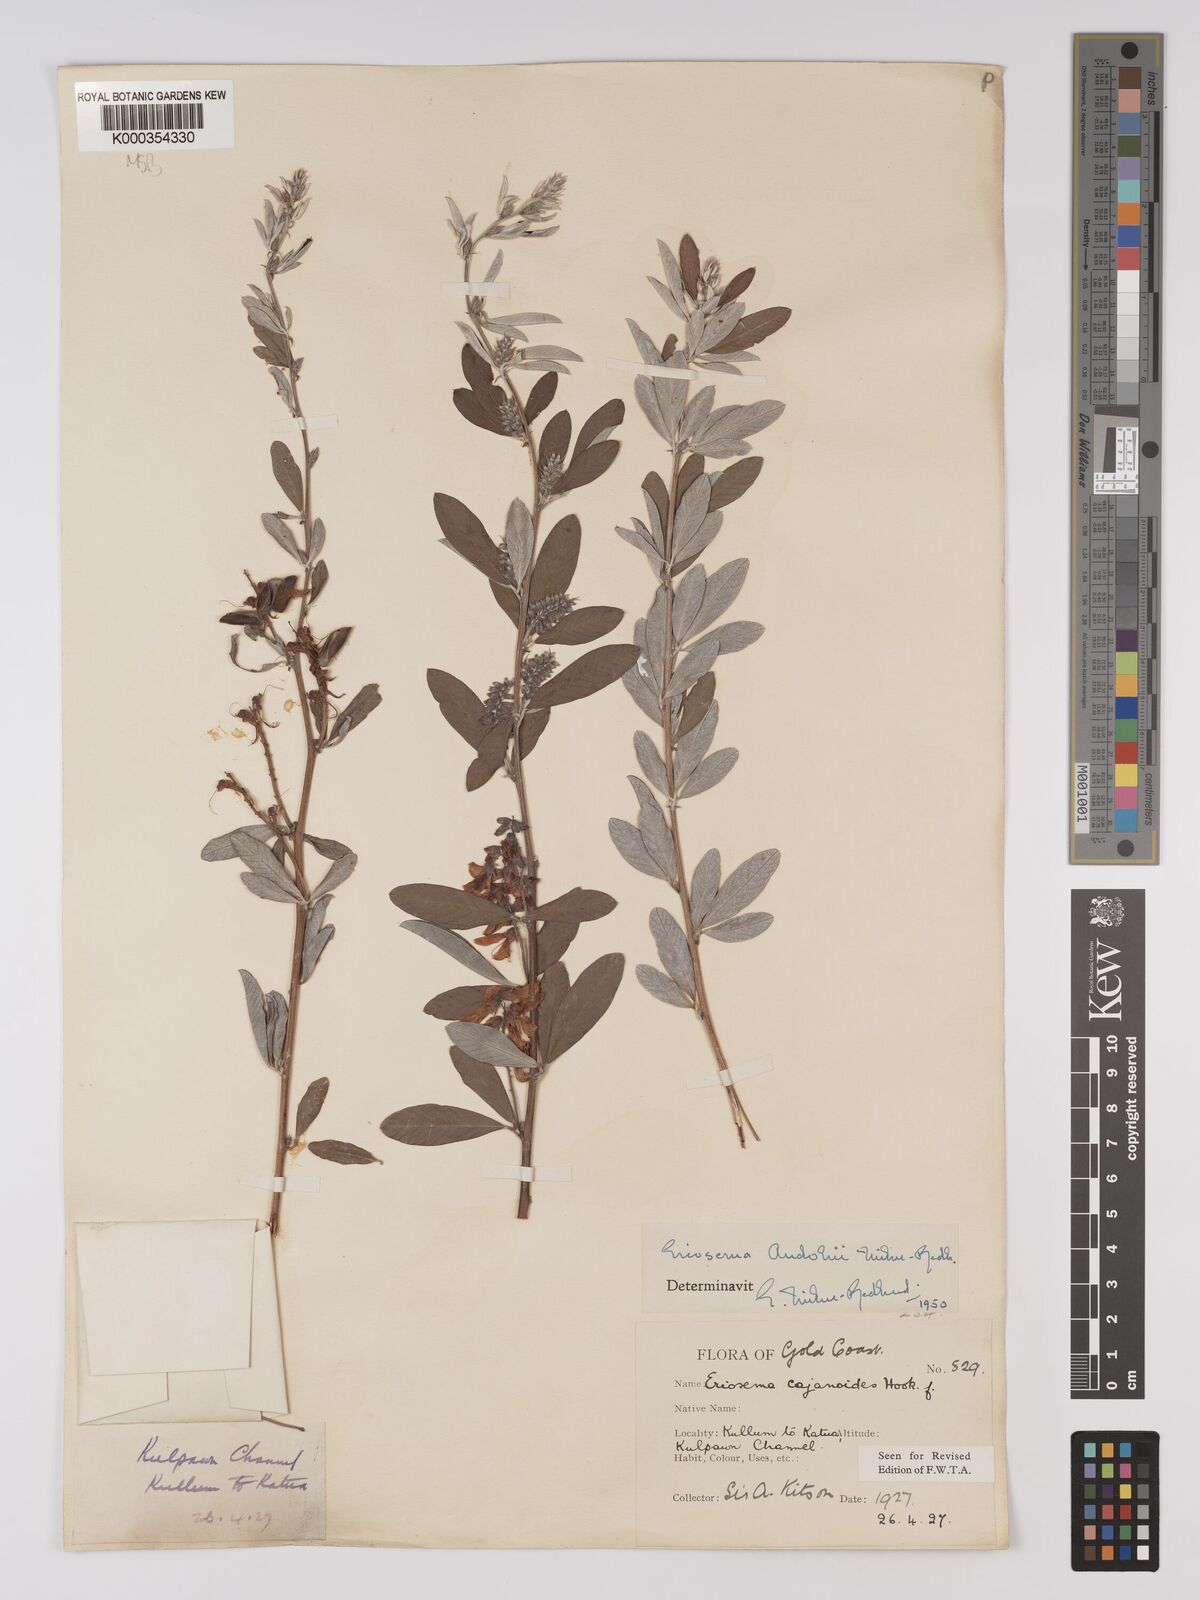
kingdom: Plantae
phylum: Tracheophyta
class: Magnoliopsida
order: Fabales
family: Fabaceae
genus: Eriosema
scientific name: Eriosema andohii
